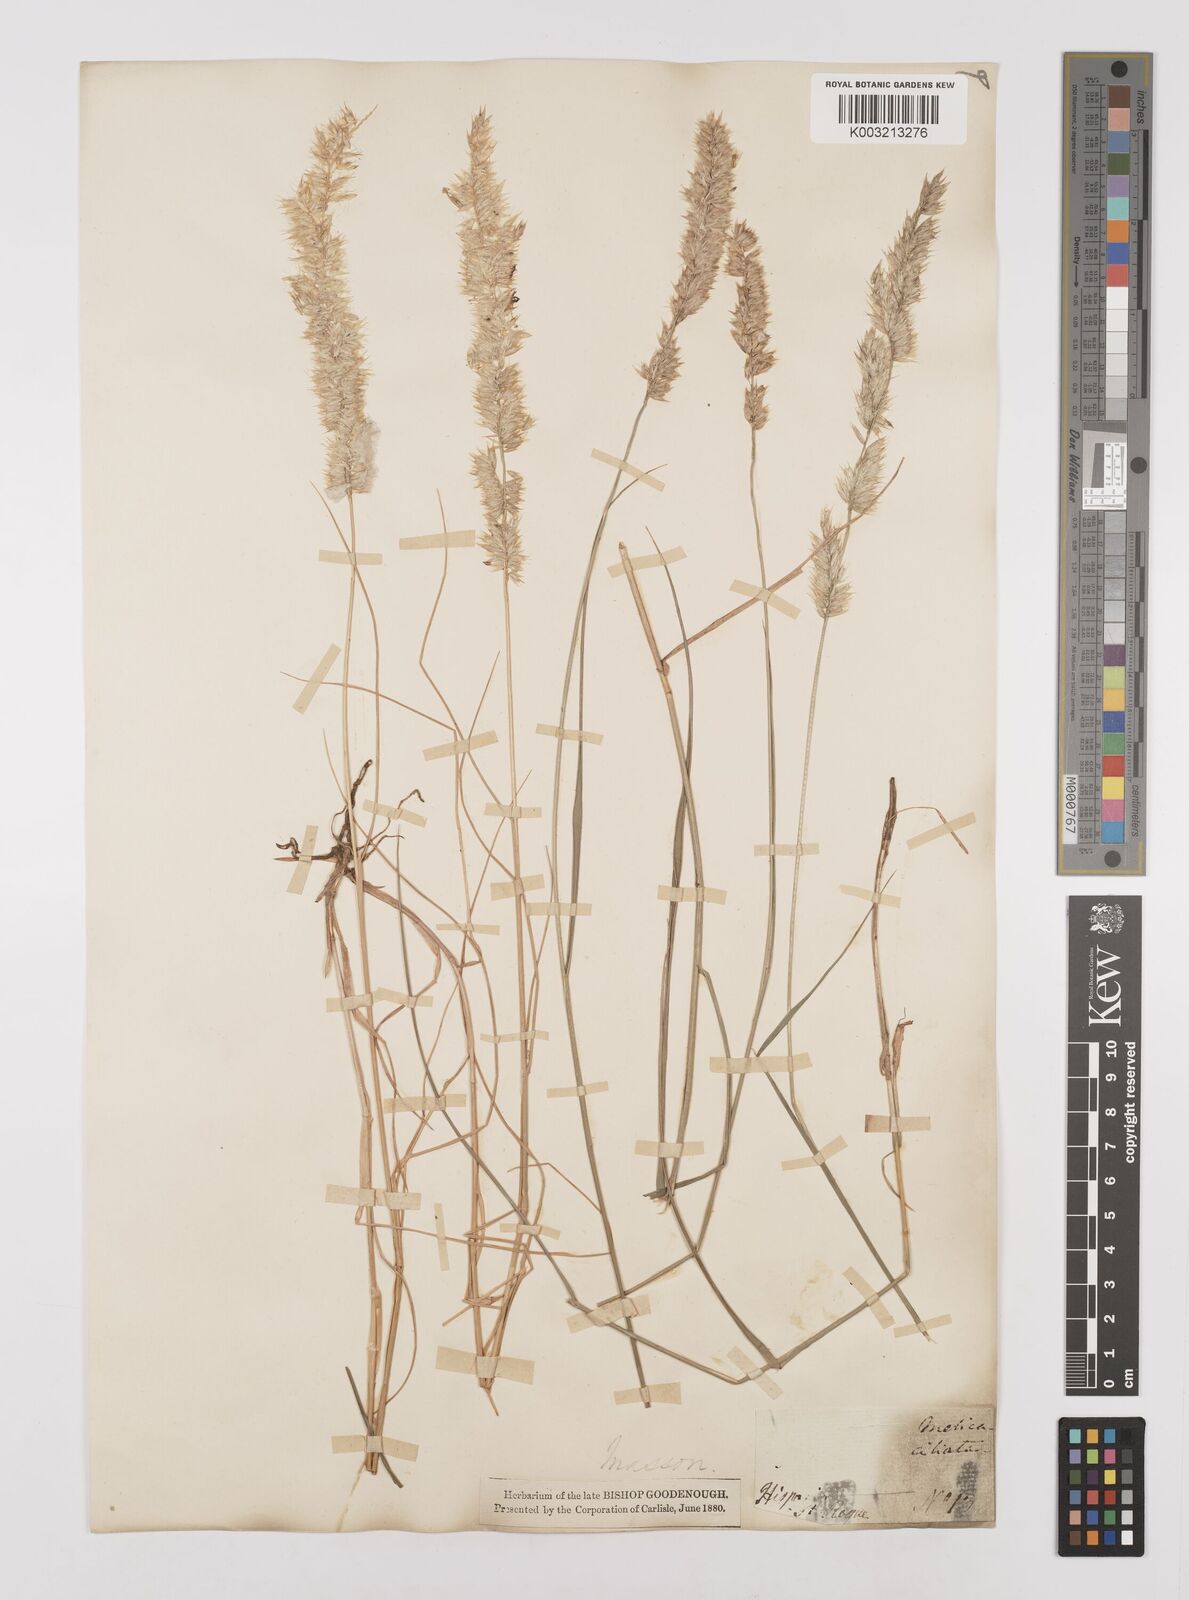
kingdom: Plantae
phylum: Tracheophyta
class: Liliopsida
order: Poales
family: Poaceae
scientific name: Poaceae
